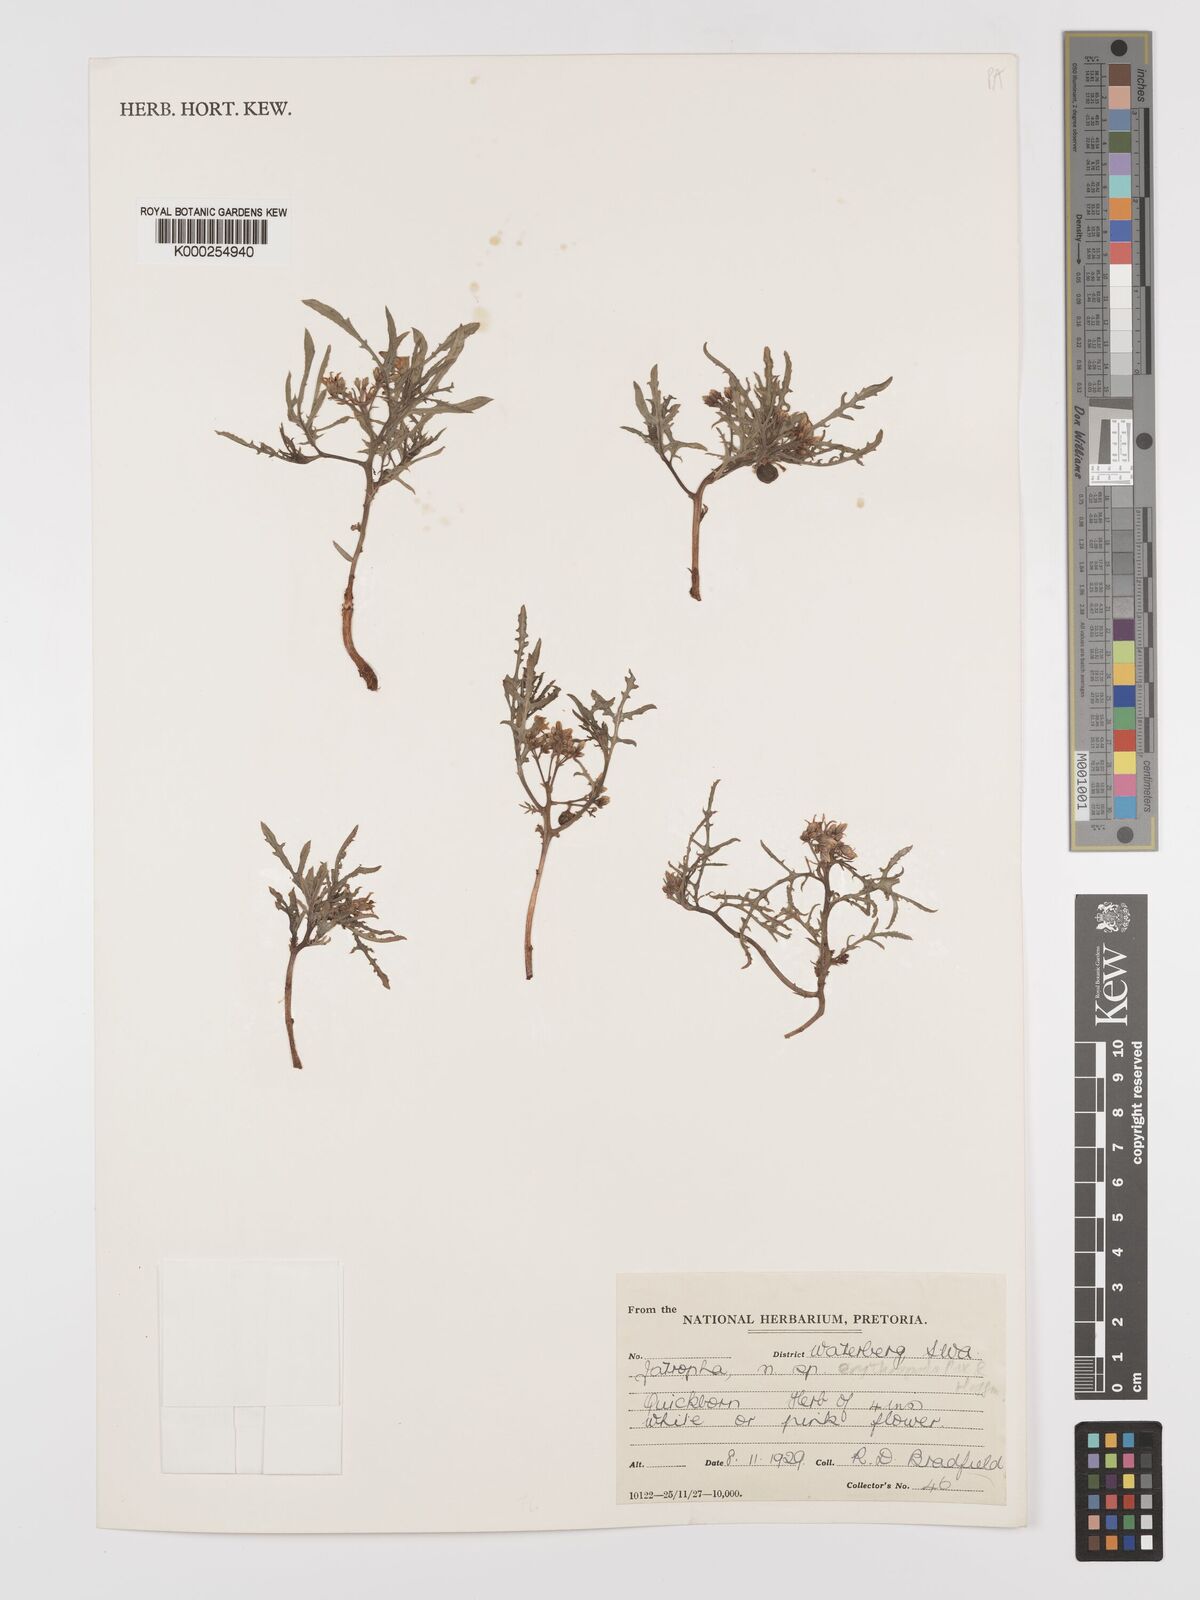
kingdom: Plantae
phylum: Tracheophyta
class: Magnoliopsida
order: Malpighiales
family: Euphorbiaceae
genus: Jatropha
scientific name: Jatropha erythropoda
